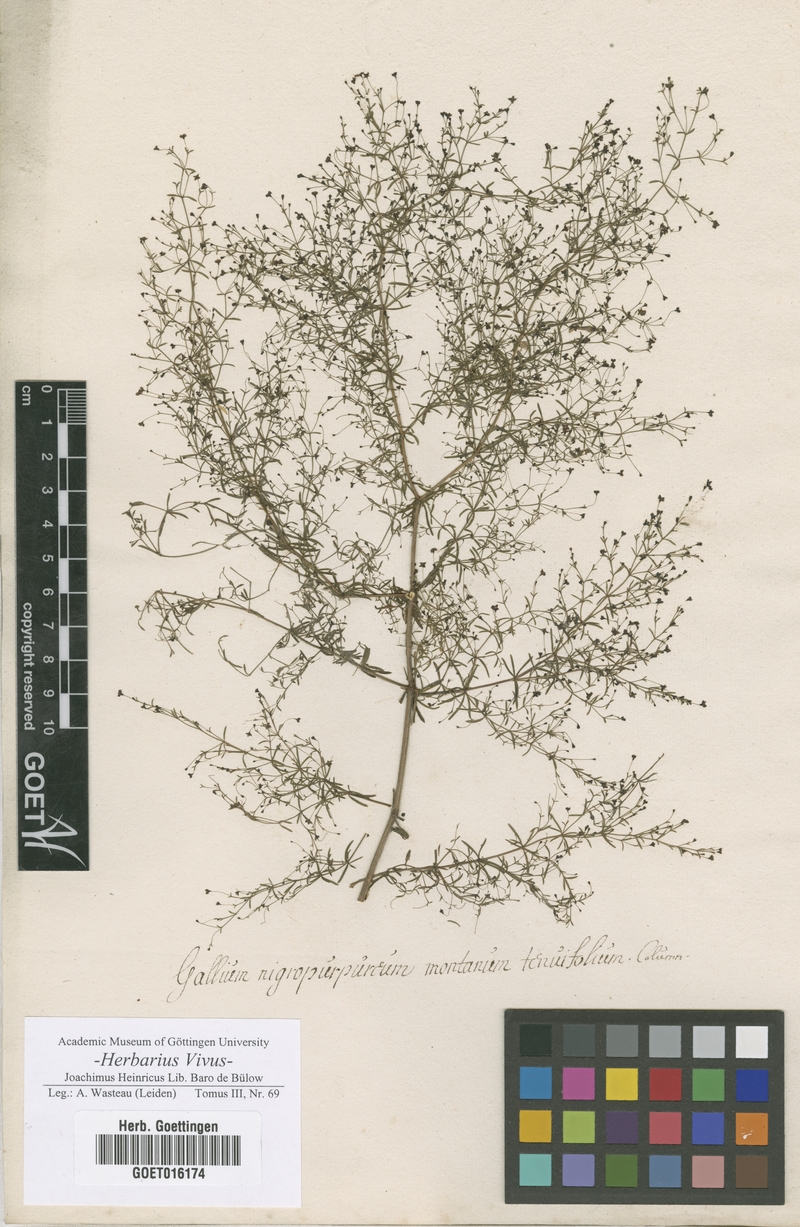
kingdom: Plantae
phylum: Tracheophyta
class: Magnoliopsida
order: Gentianales
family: Rubiaceae
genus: Thliphthisa
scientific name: Thliphthisa purpurea
